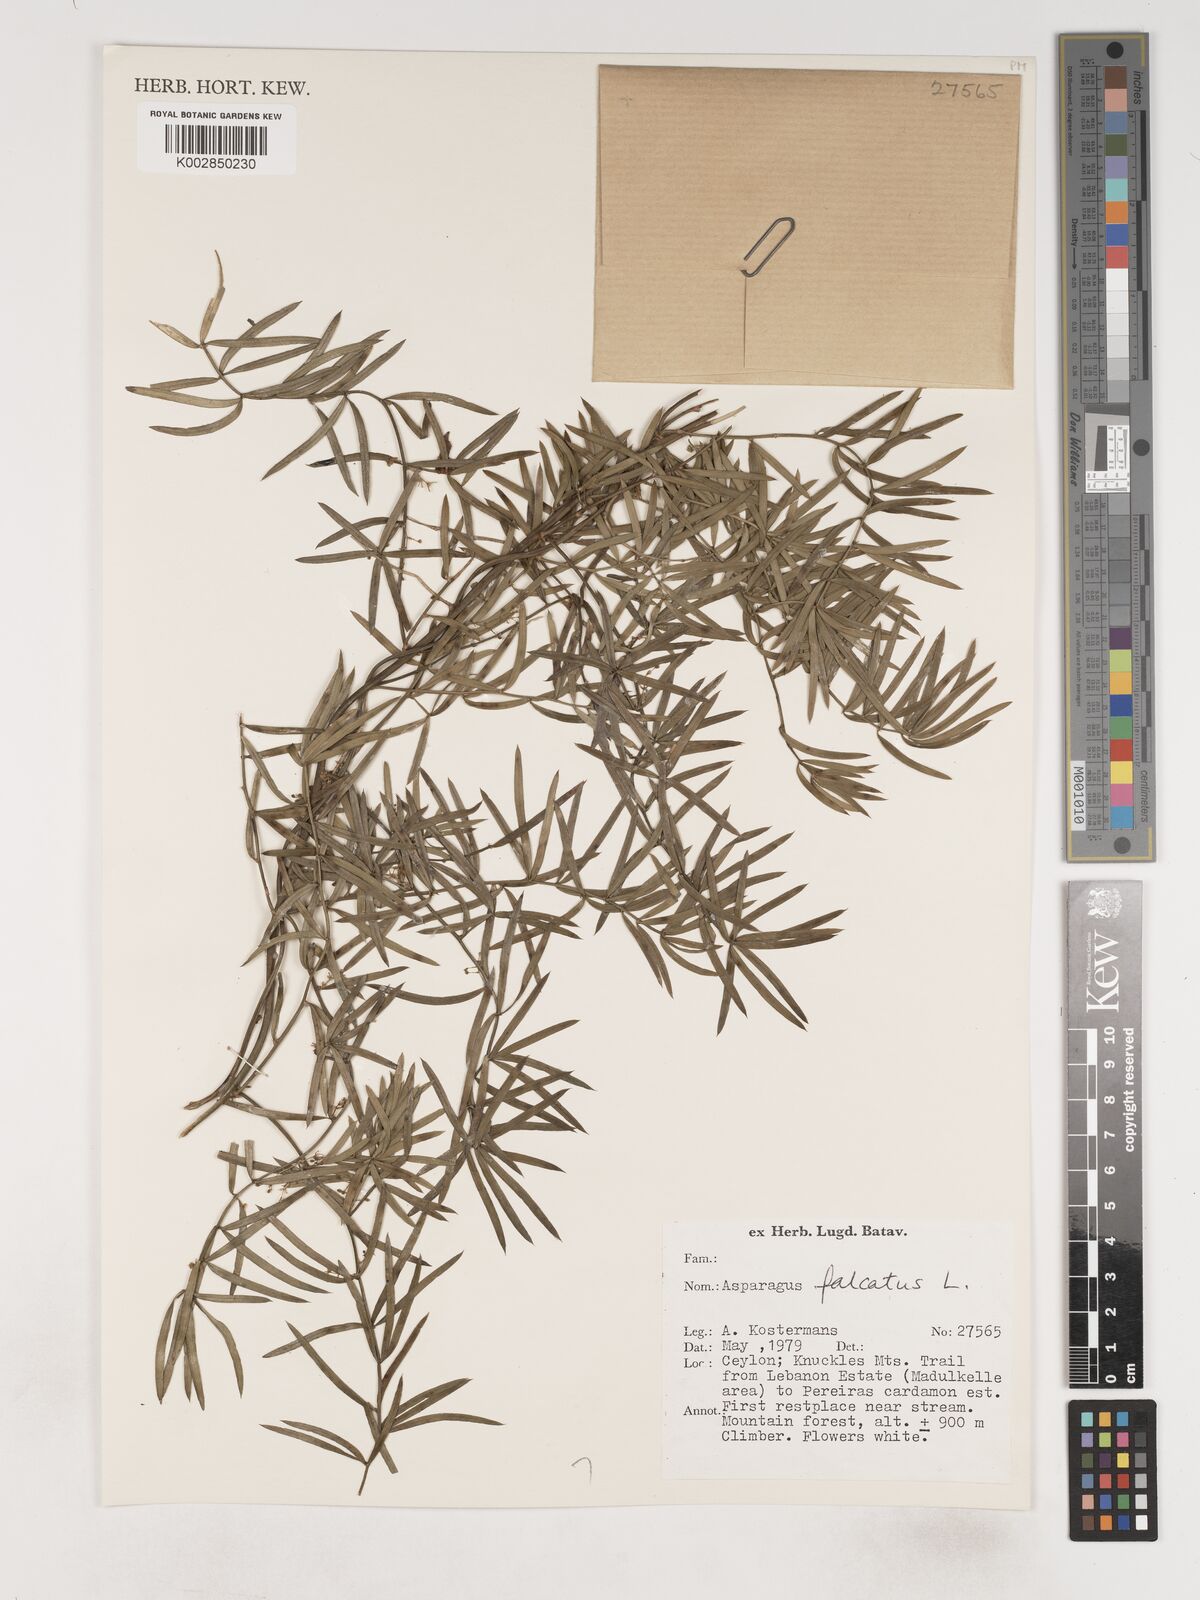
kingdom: Plantae
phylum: Tracheophyta
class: Liliopsida
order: Asparagales
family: Asparagaceae
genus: Asparagus
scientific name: Asparagus falcatus
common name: Asparagus
